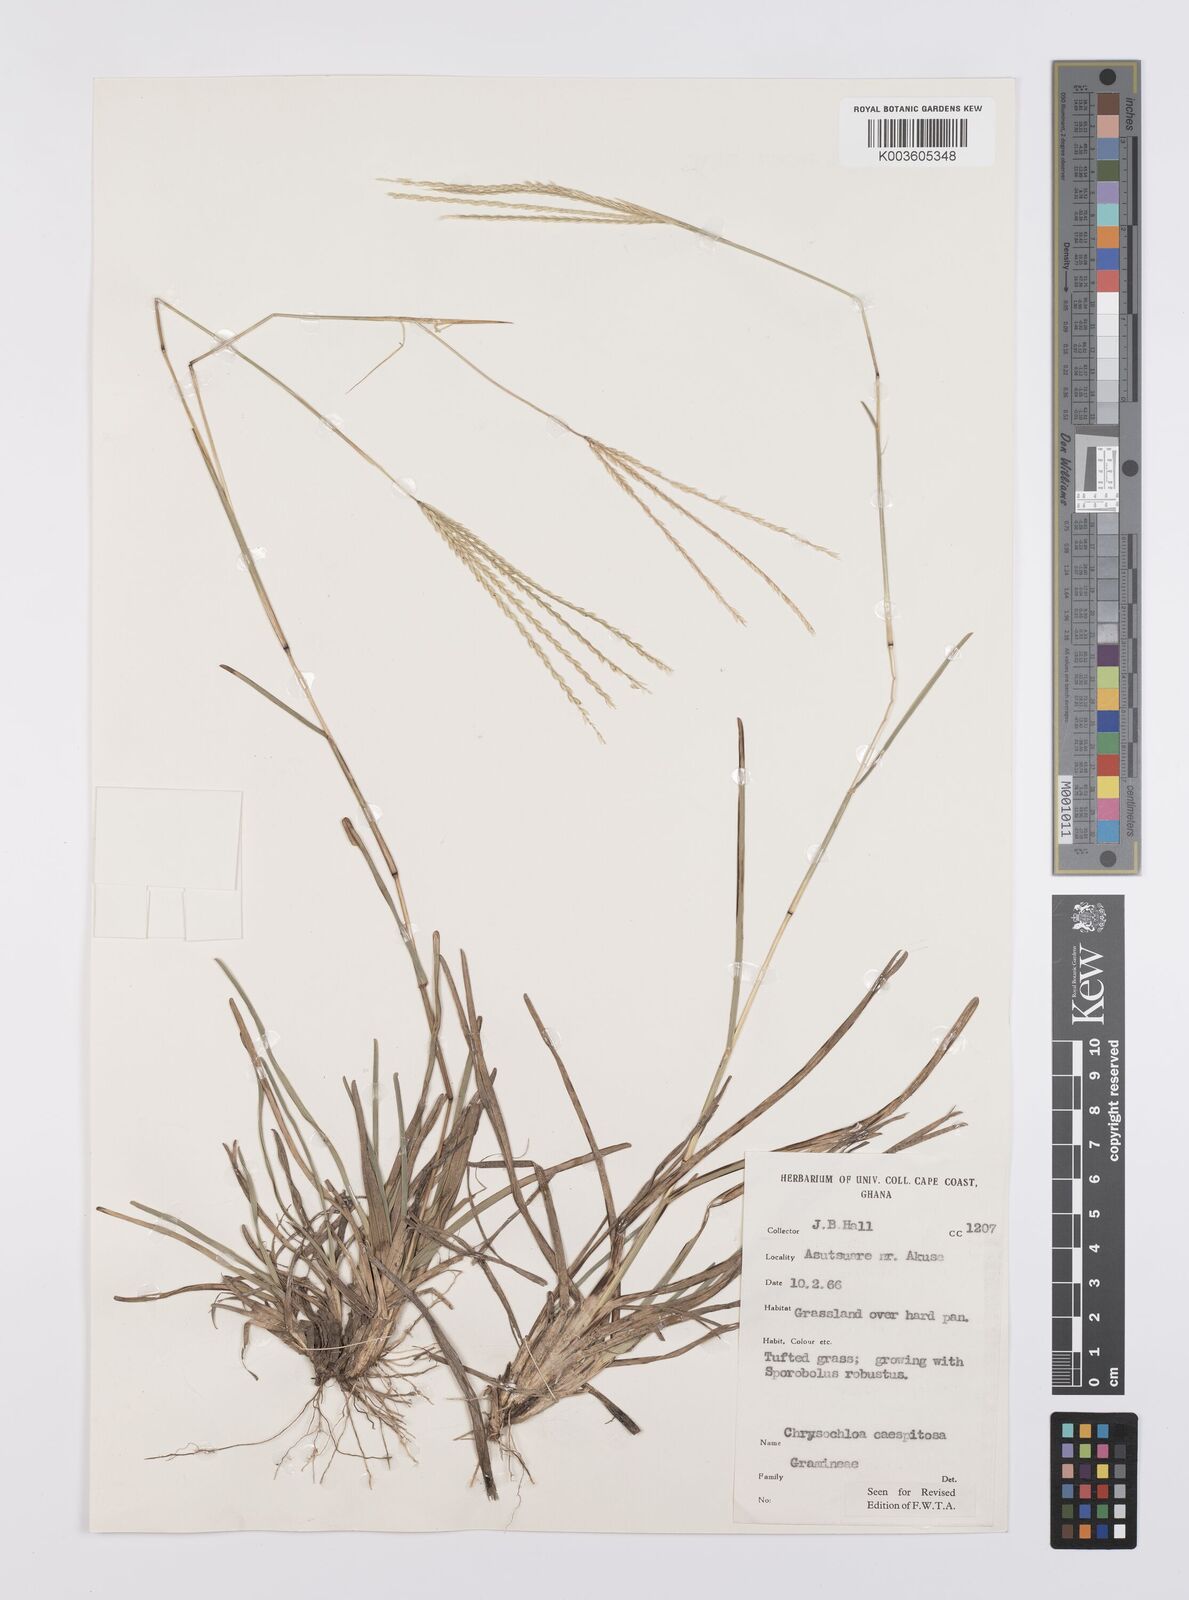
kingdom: Plantae
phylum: Tracheophyta
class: Liliopsida
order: Poales
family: Poaceae
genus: Chrysochloa
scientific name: Chrysochloa hindsii
